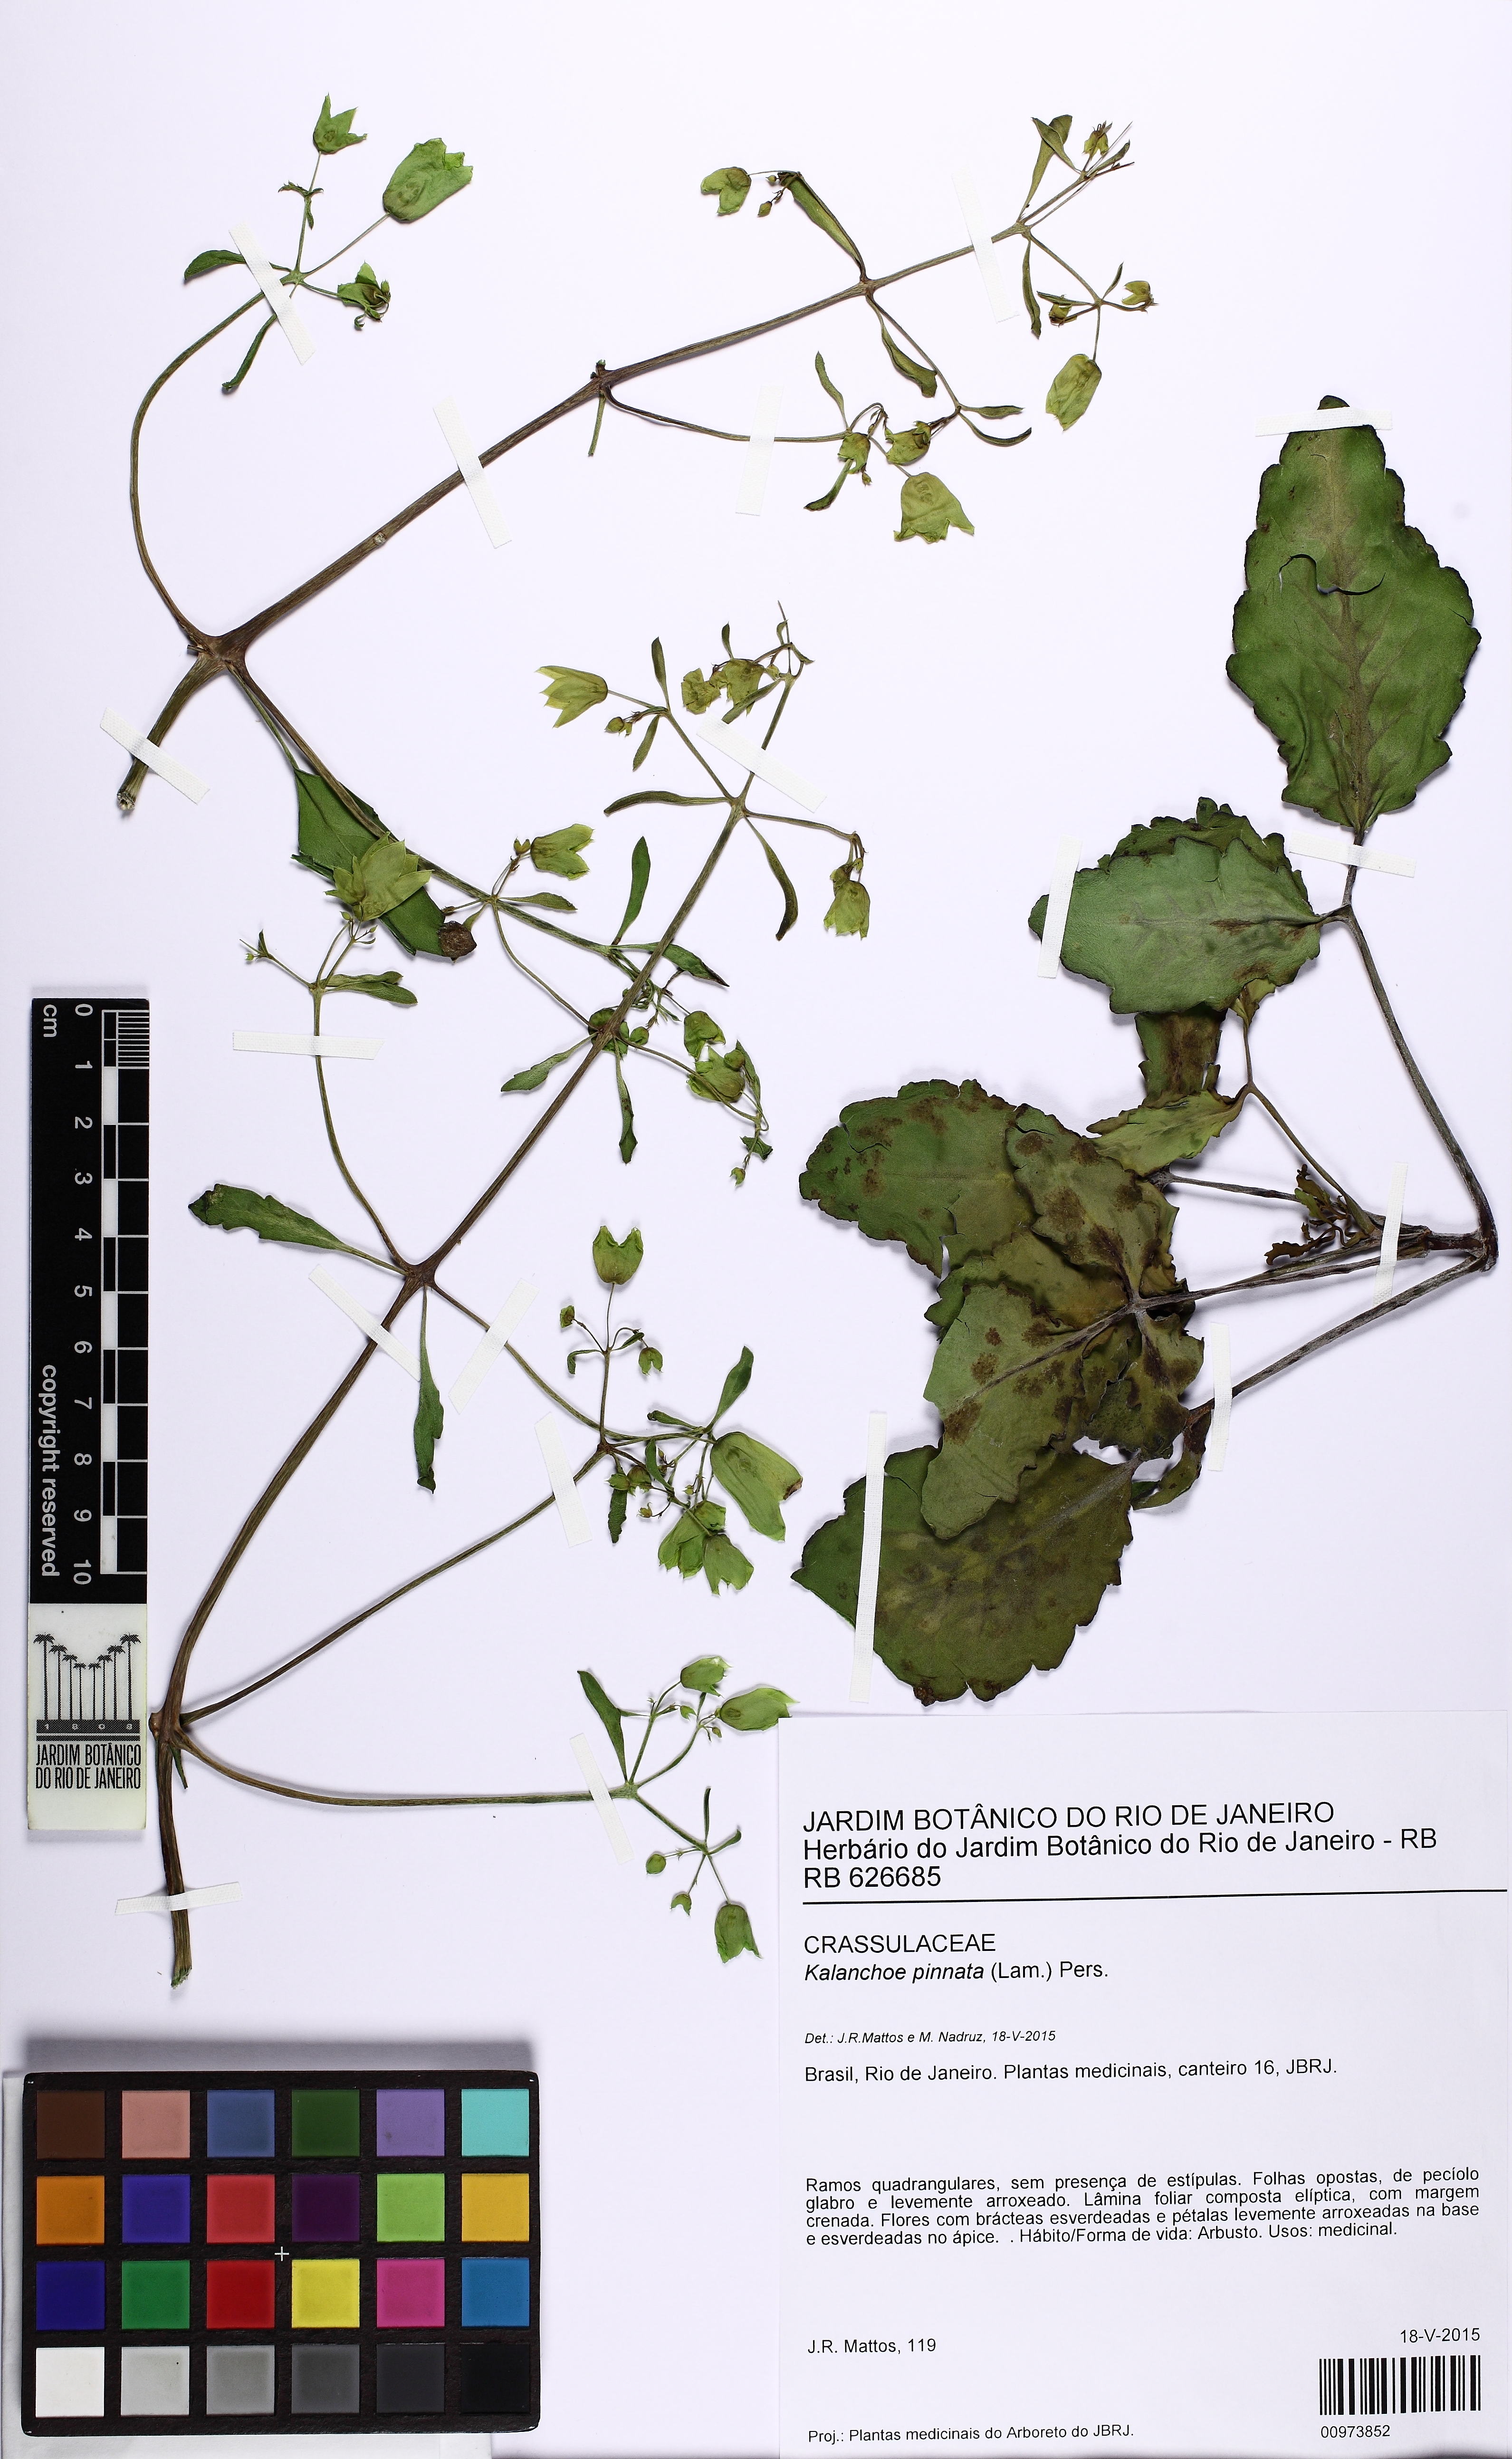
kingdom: Plantae
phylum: Tracheophyta
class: Magnoliopsida
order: Saxifragales
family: Crassulaceae
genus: Kalanchoe
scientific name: Kalanchoe pinnata
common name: Cathedral bells
